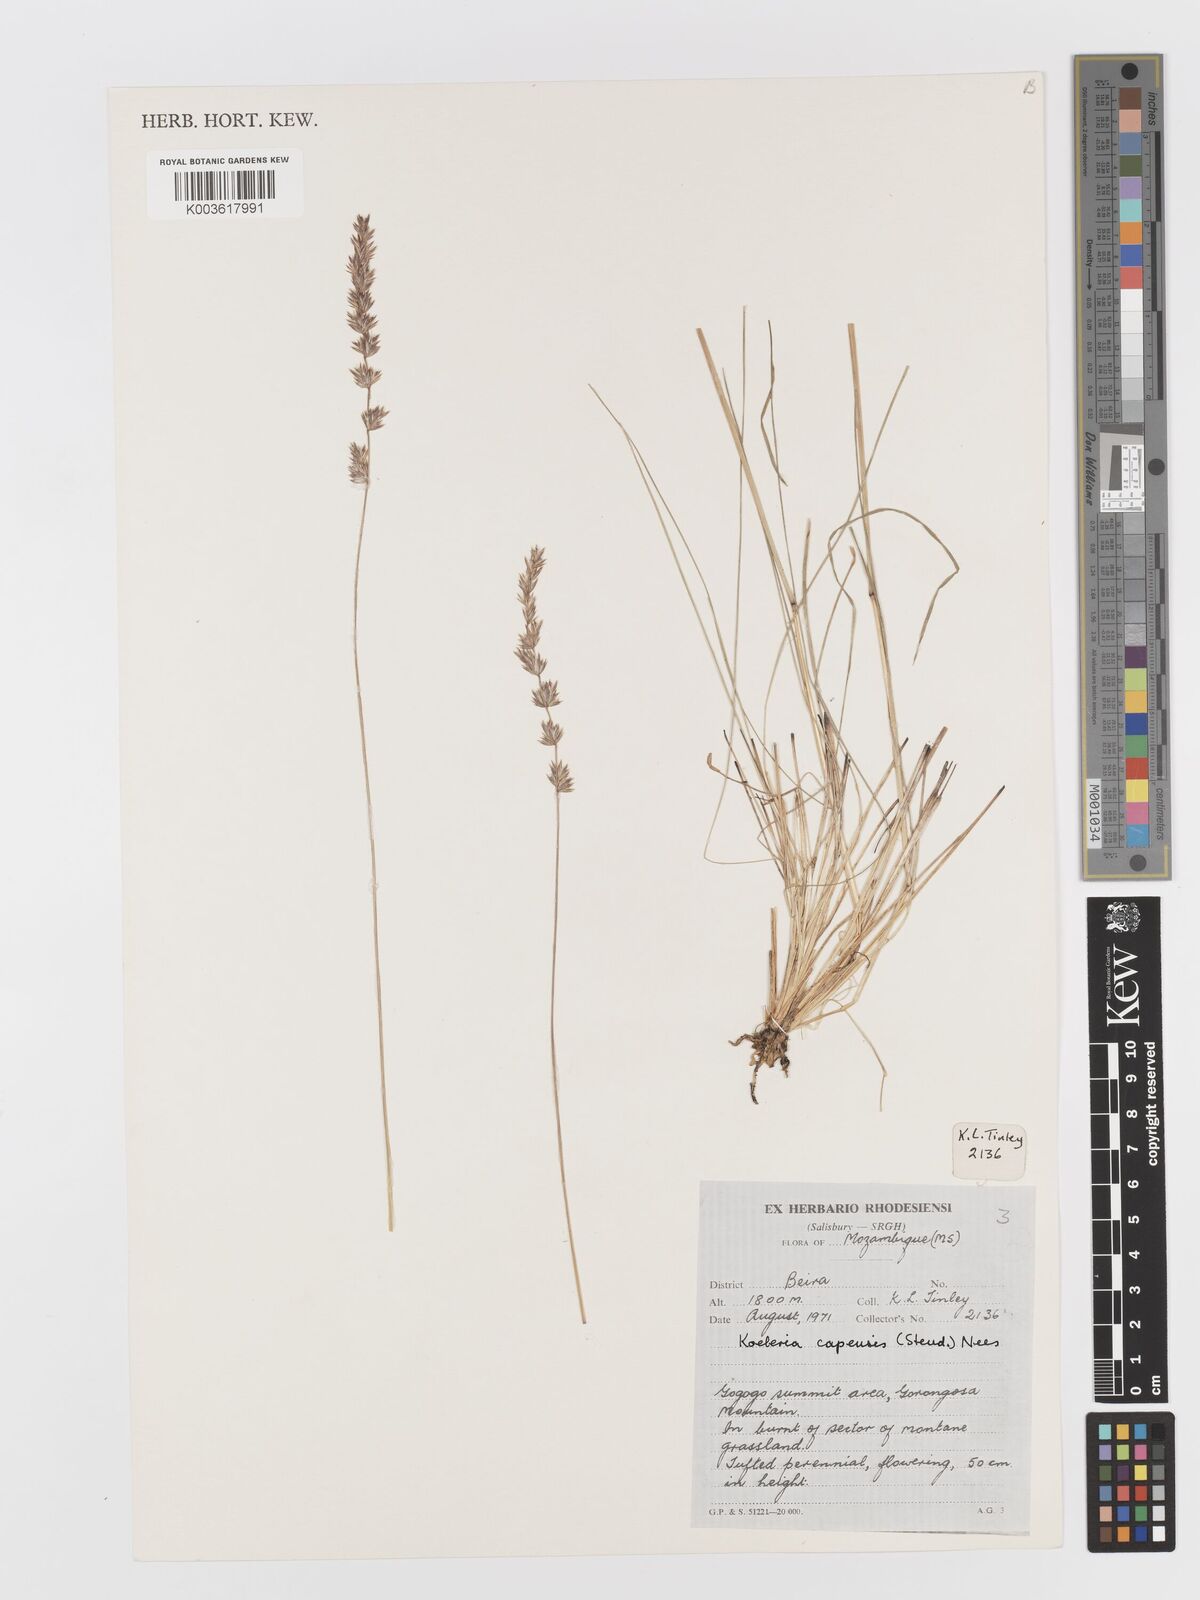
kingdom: Plantae
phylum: Tracheophyta
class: Liliopsida
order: Poales
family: Poaceae
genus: Koeleria
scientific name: Koeleria capensis
